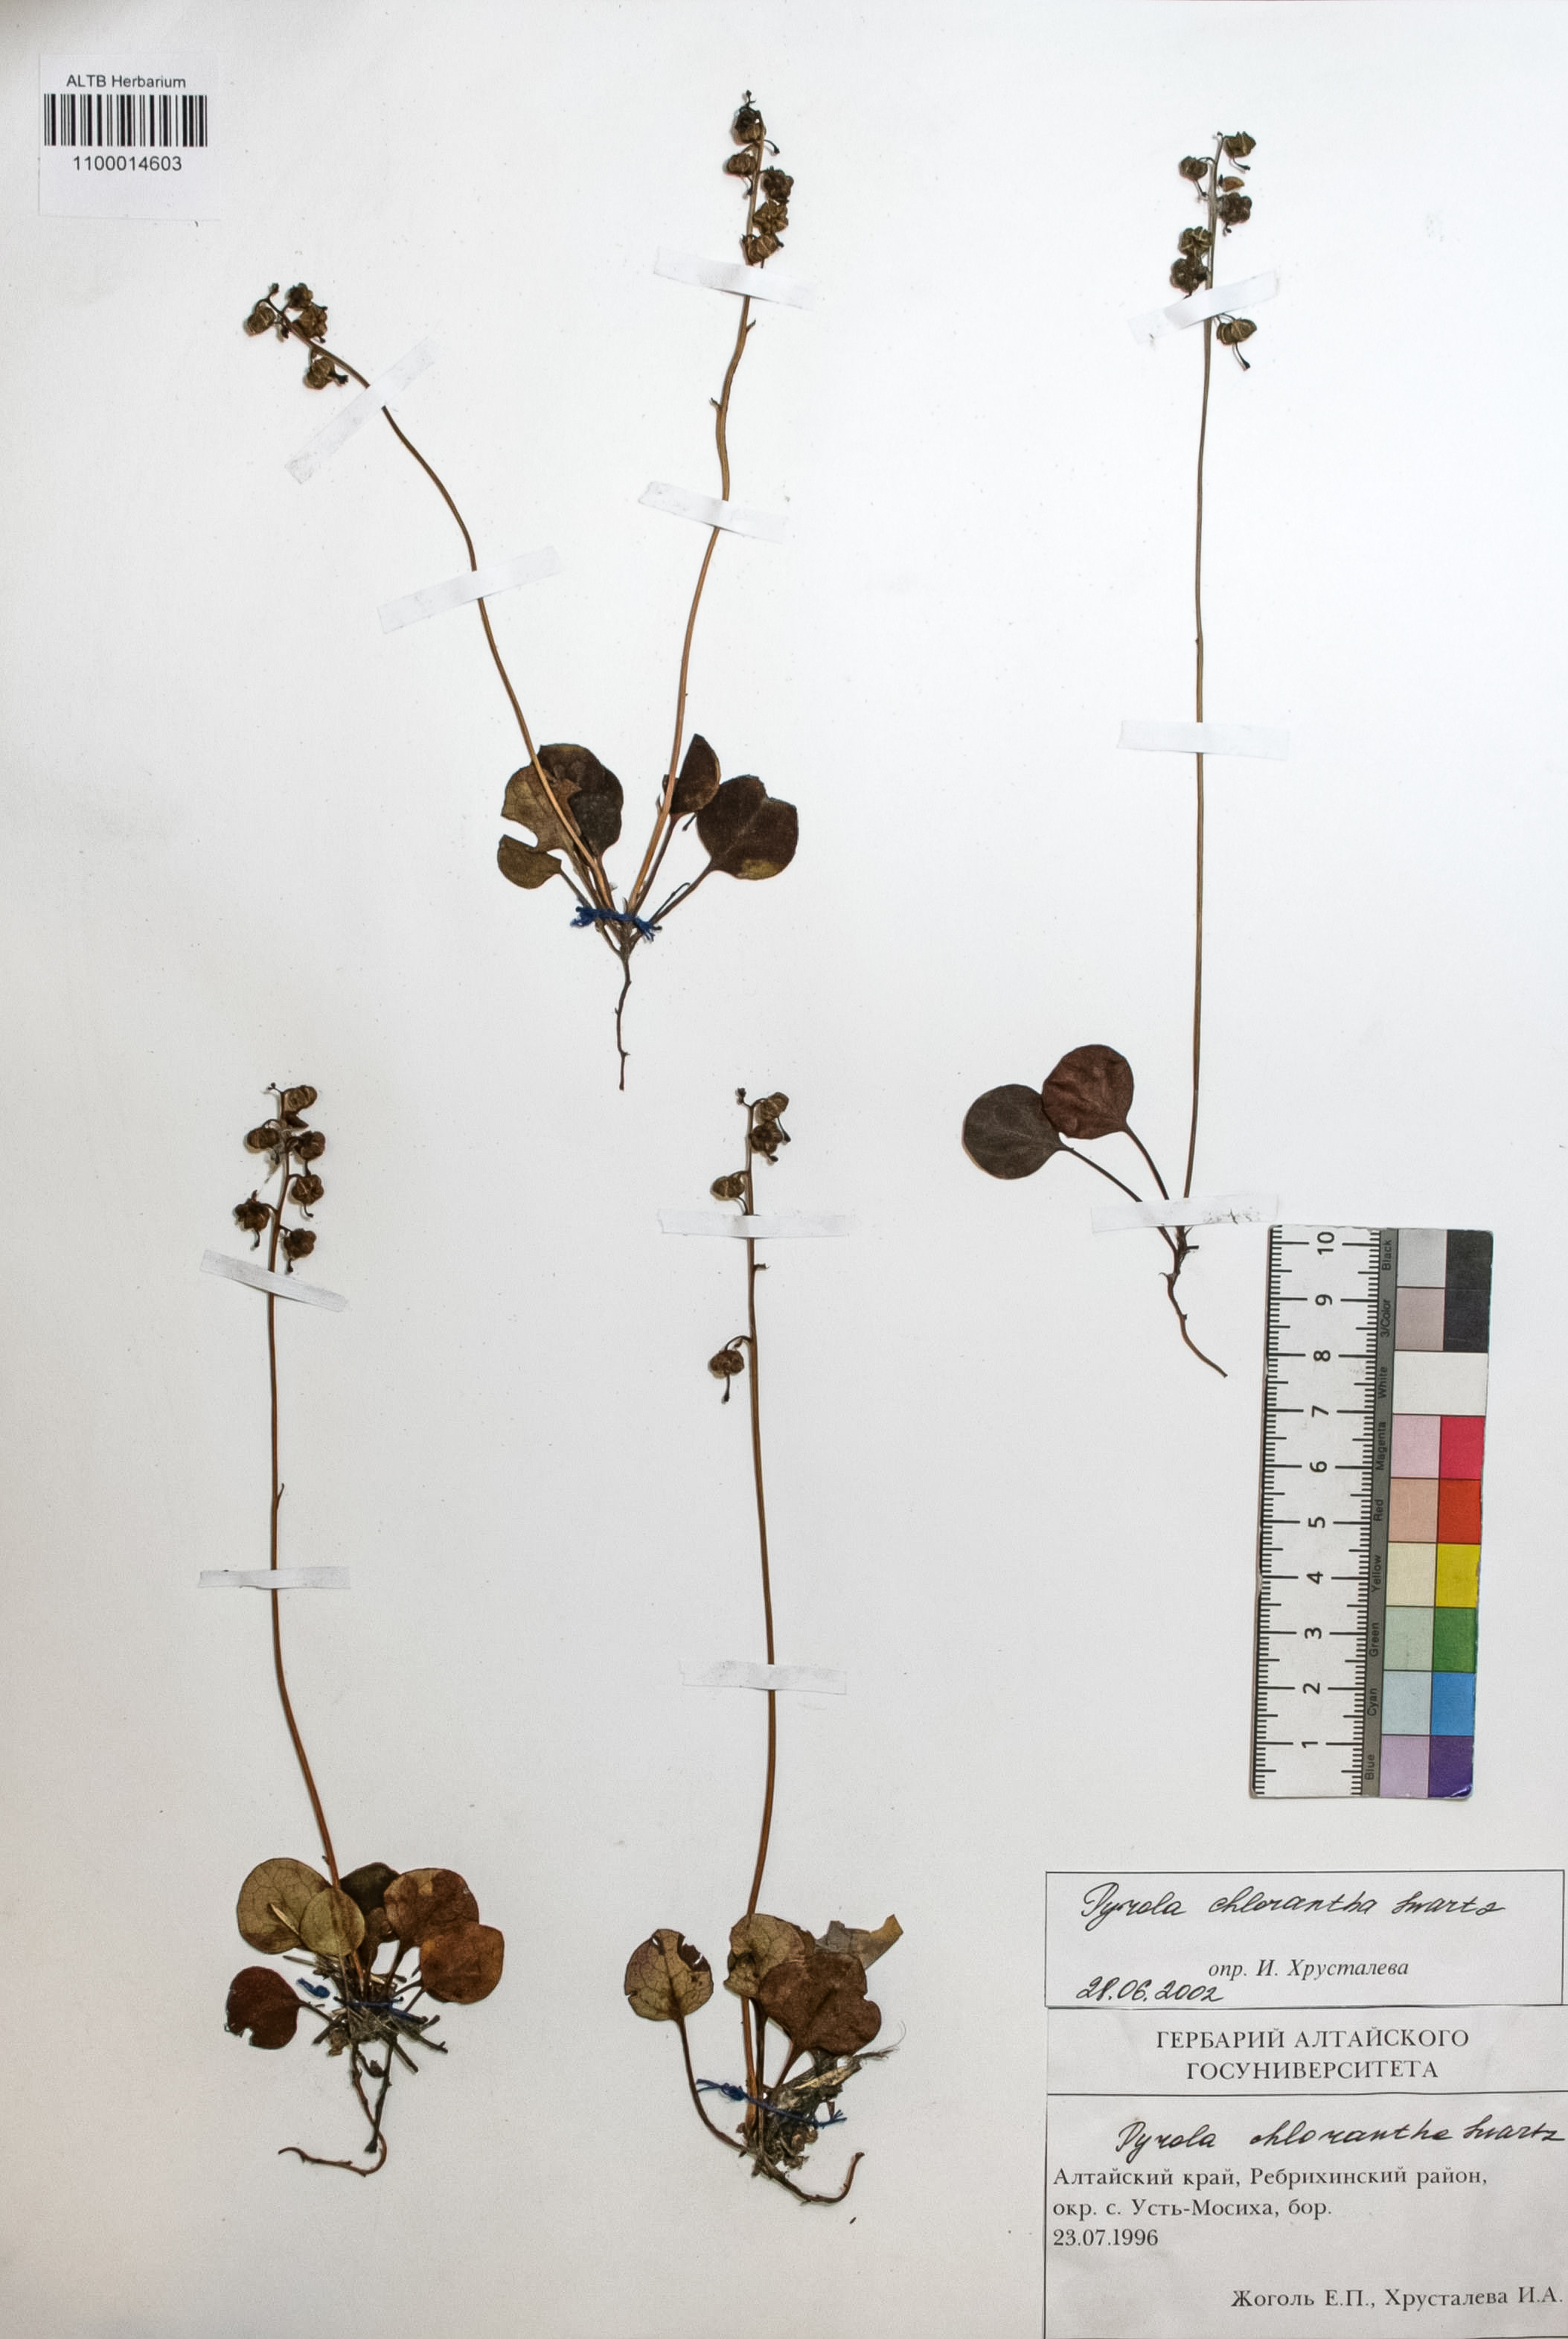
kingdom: Plantae
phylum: Tracheophyta
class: Magnoliopsida
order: Ericales
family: Ericaceae
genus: Pyrola
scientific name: Pyrola chlorantha
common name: Green wintergreen
